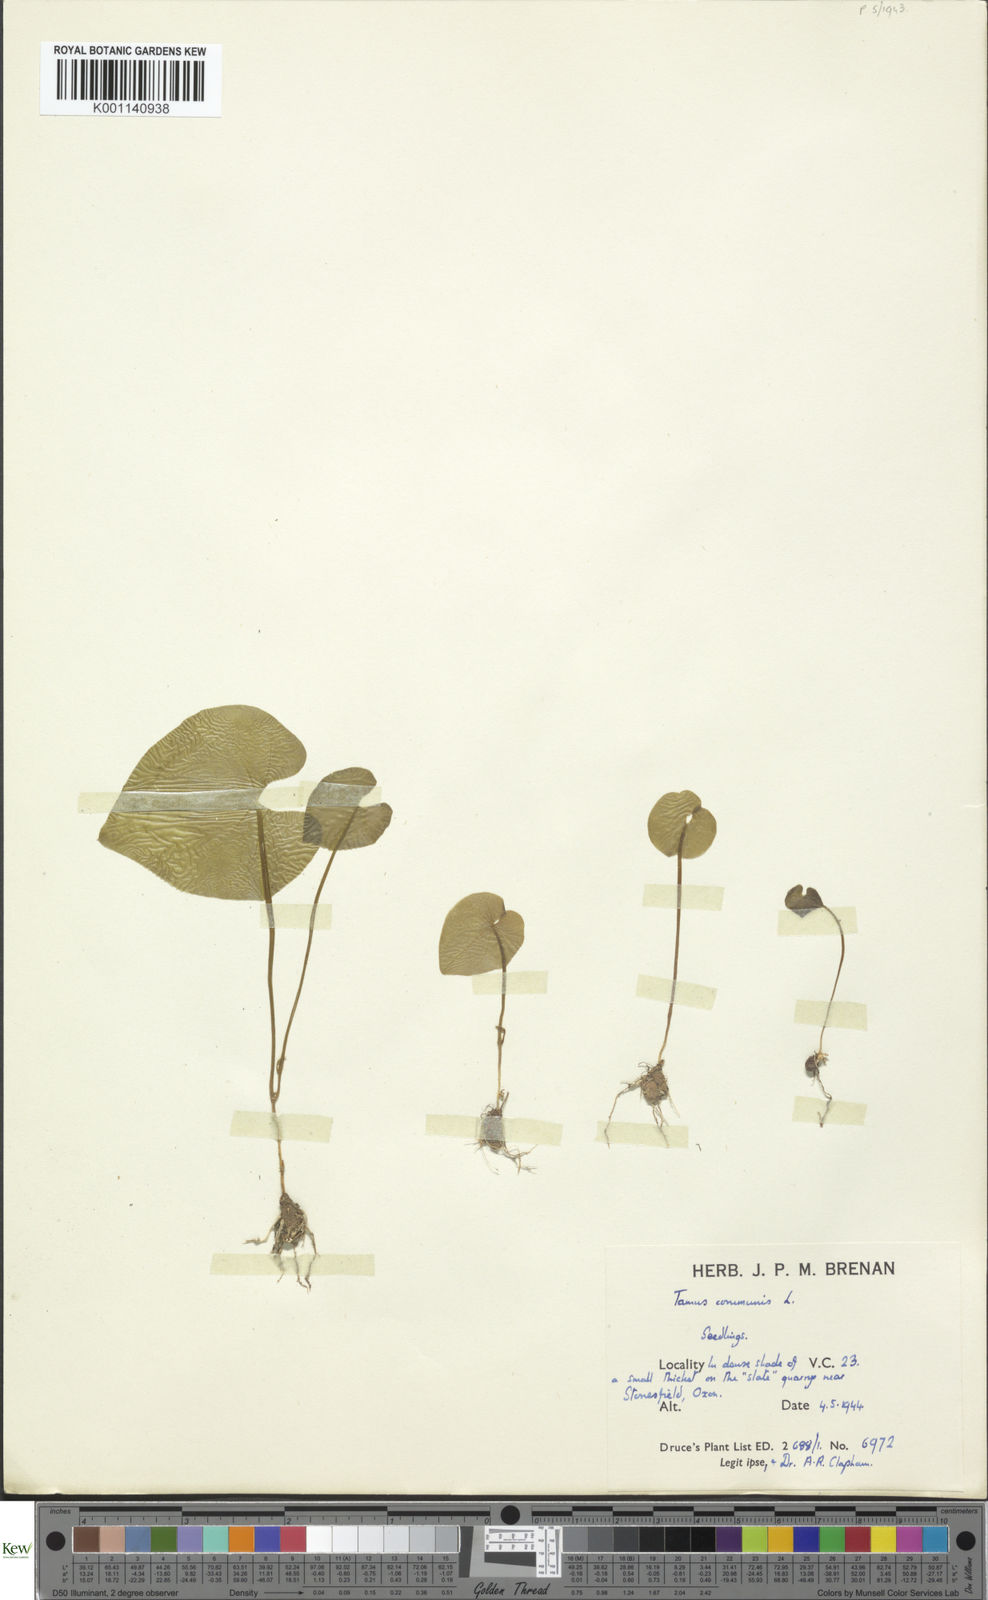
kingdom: Plantae
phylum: Tracheophyta
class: Liliopsida
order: Dioscoreales
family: Dioscoreaceae
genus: Dioscorea
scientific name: Dioscorea communis
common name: Black-bindweed
